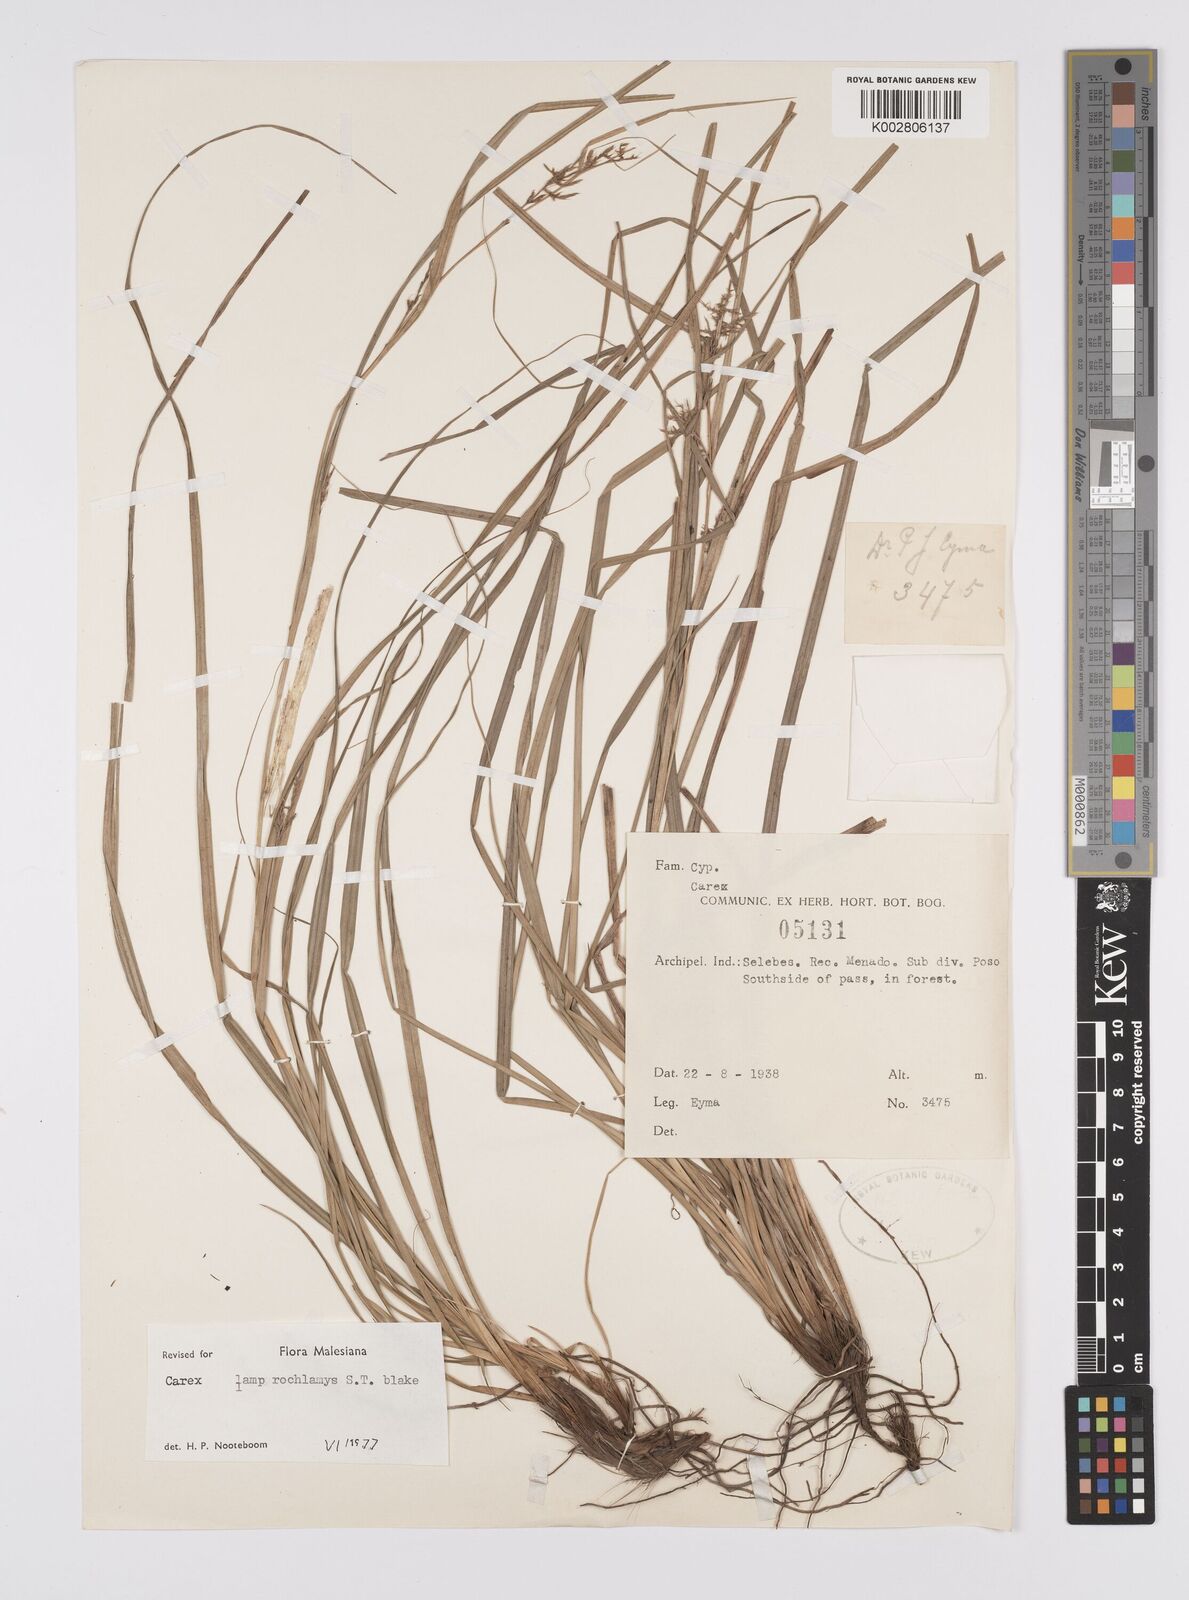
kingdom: Plantae
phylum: Tracheophyta
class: Liliopsida
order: Poales
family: Cyperaceae
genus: Carex
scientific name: Carex lamprochlamys
